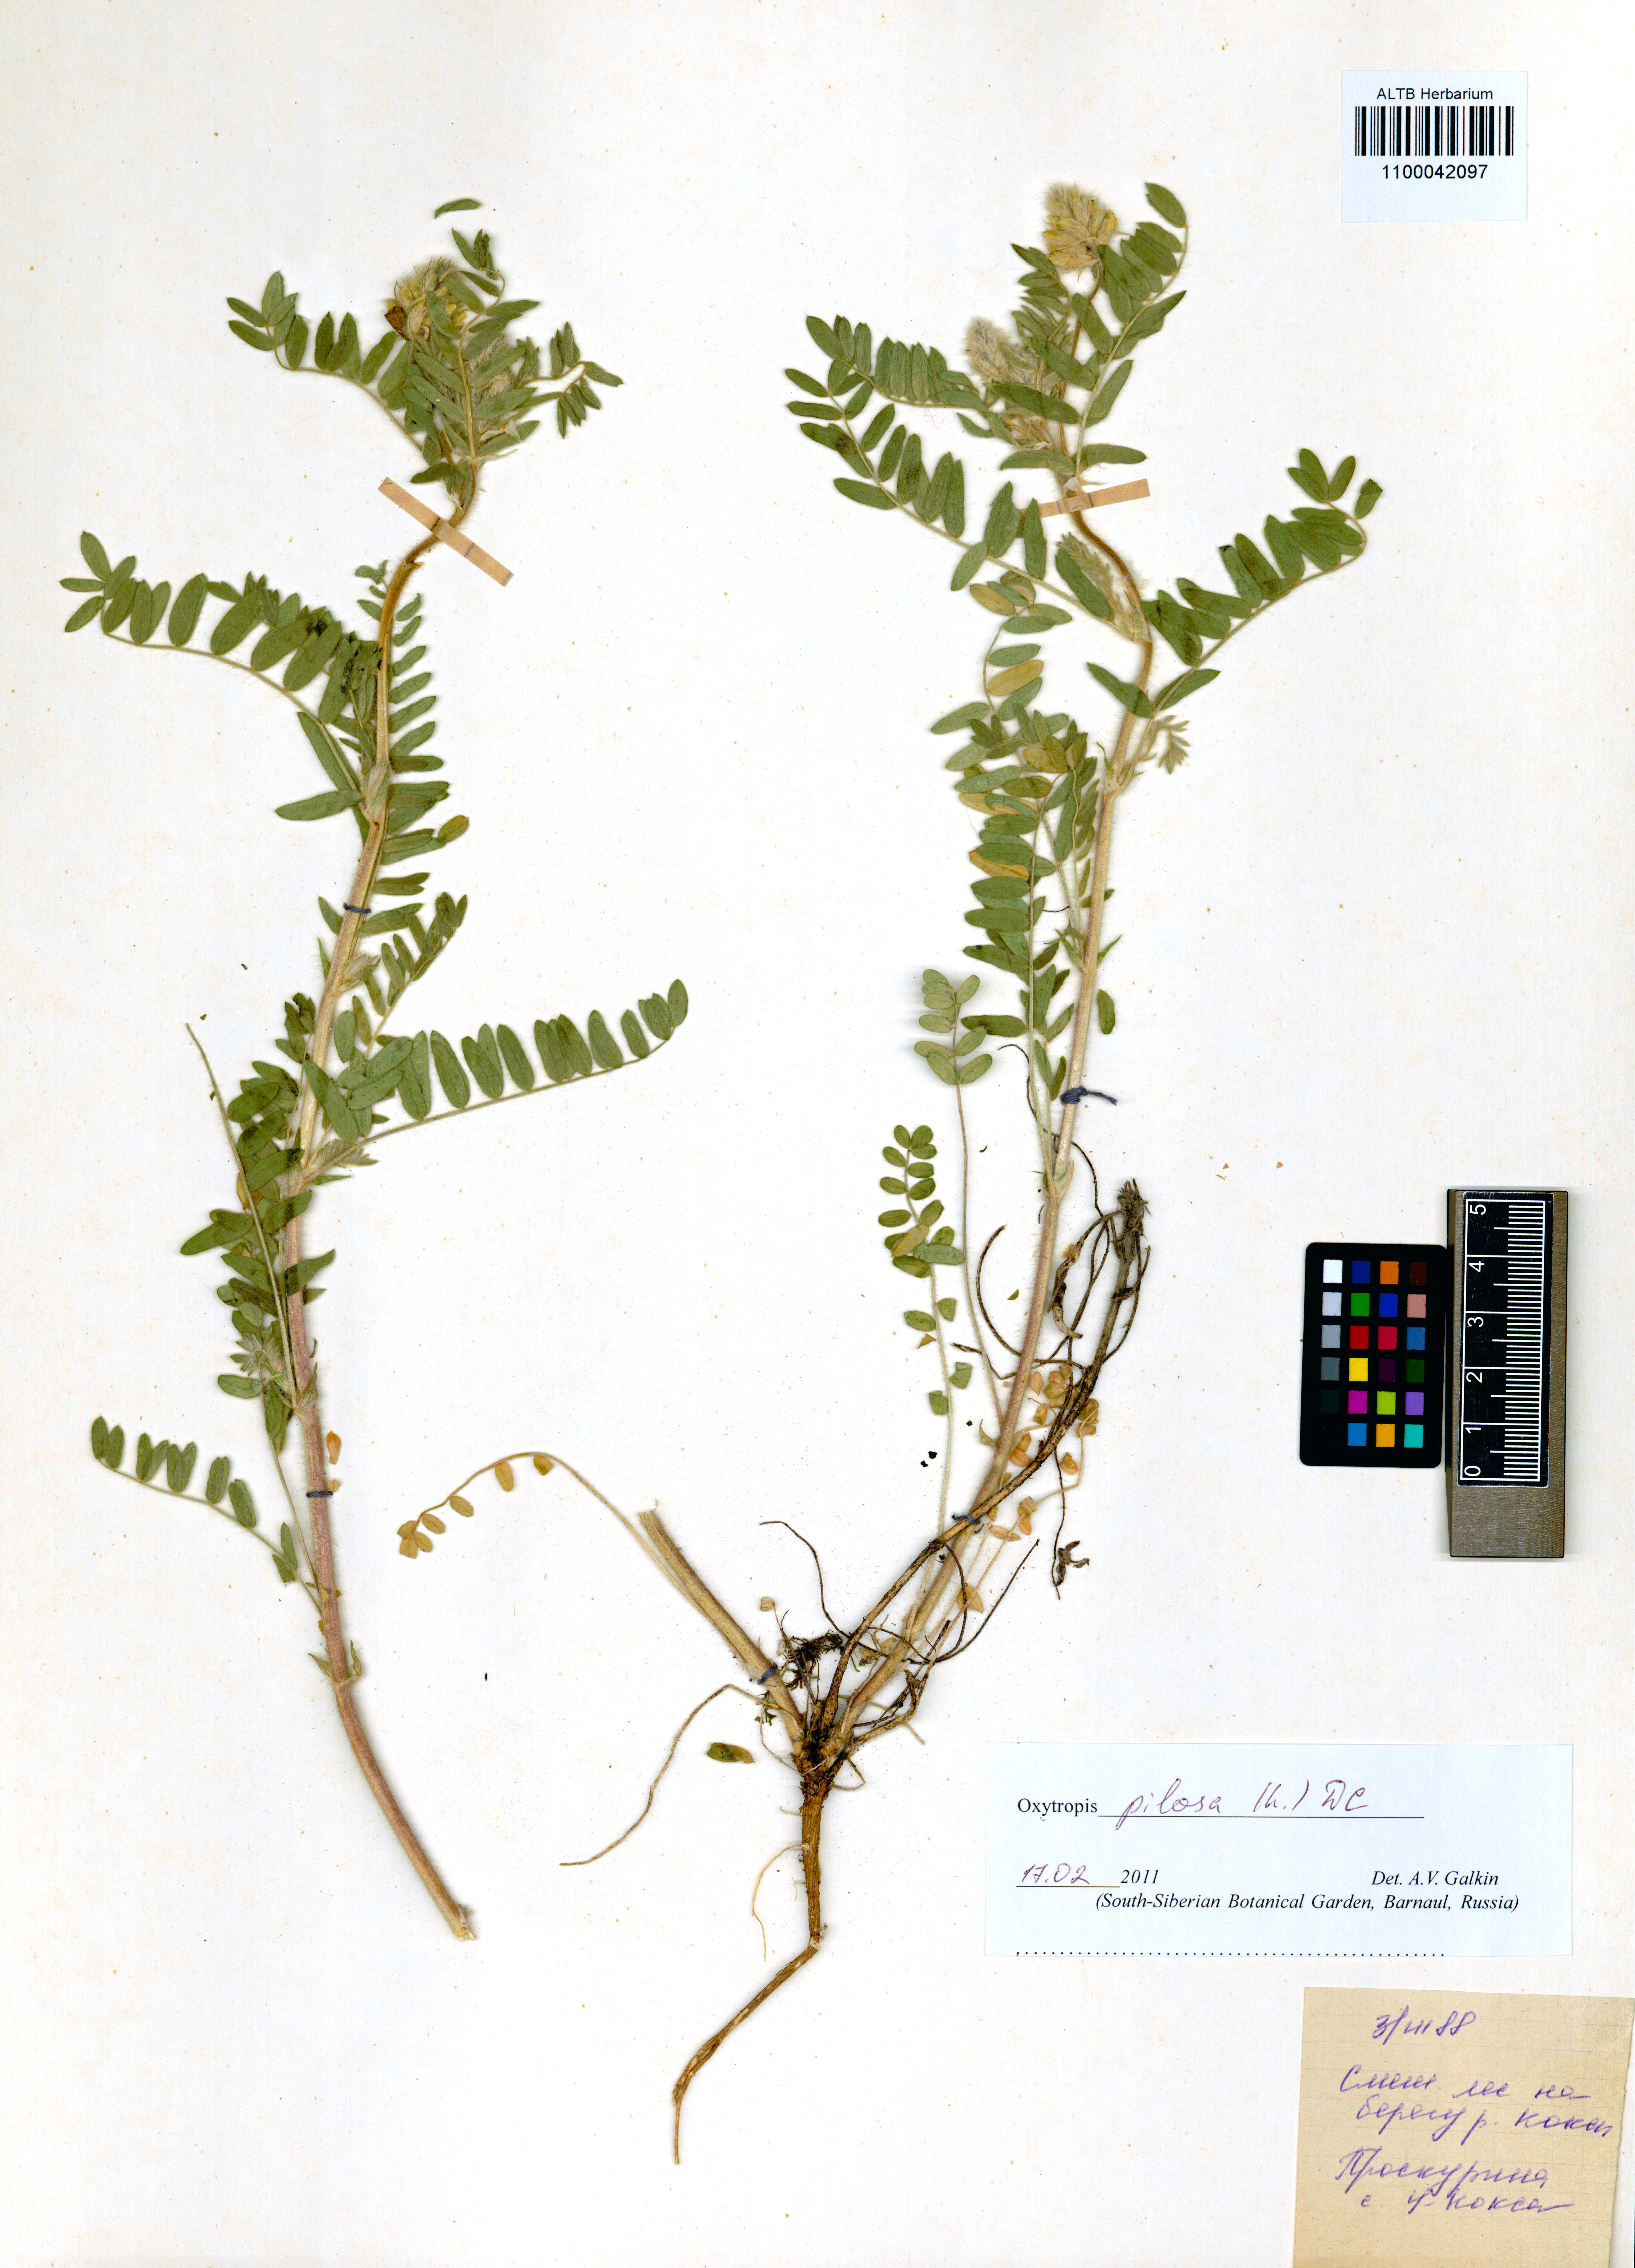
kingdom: Plantae
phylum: Tracheophyta
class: Magnoliopsida
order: Fabales
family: Fabaceae
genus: Oxytropis
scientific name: Oxytropis pilosa
